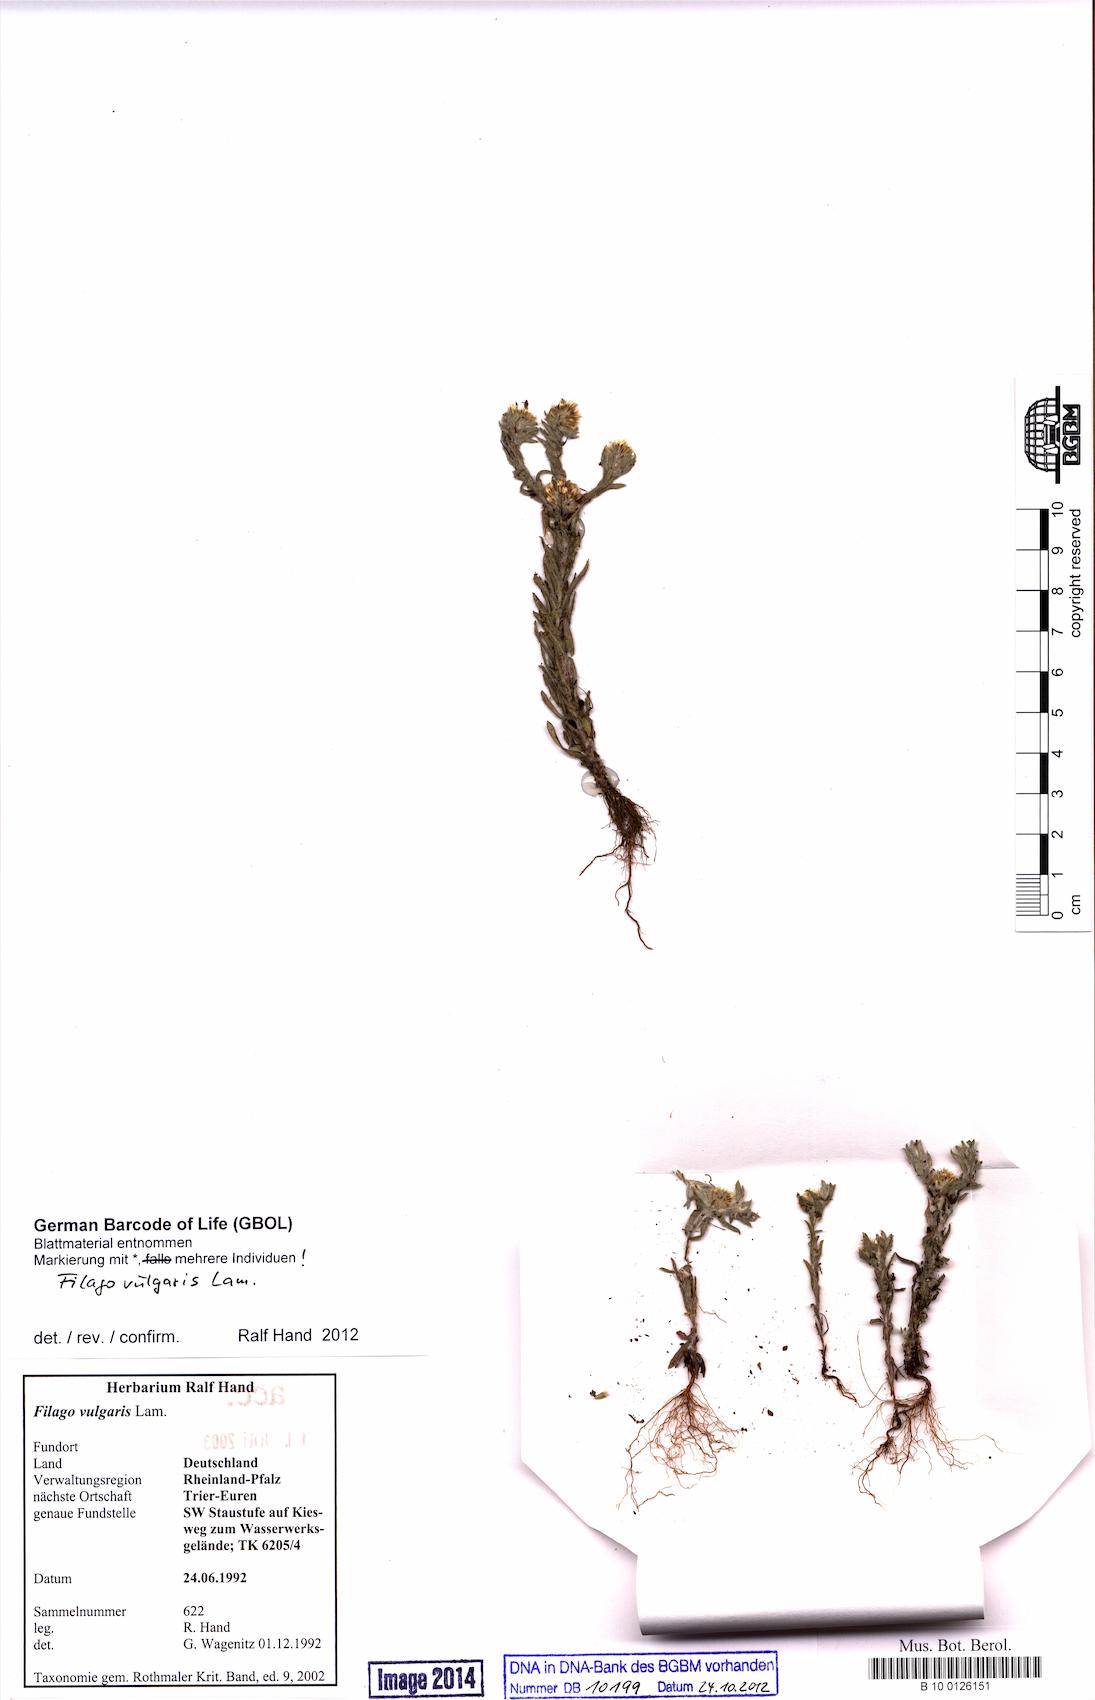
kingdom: Plantae
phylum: Tracheophyta
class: Magnoliopsida
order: Asterales
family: Asteraceae
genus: Filago
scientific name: Filago germanica
